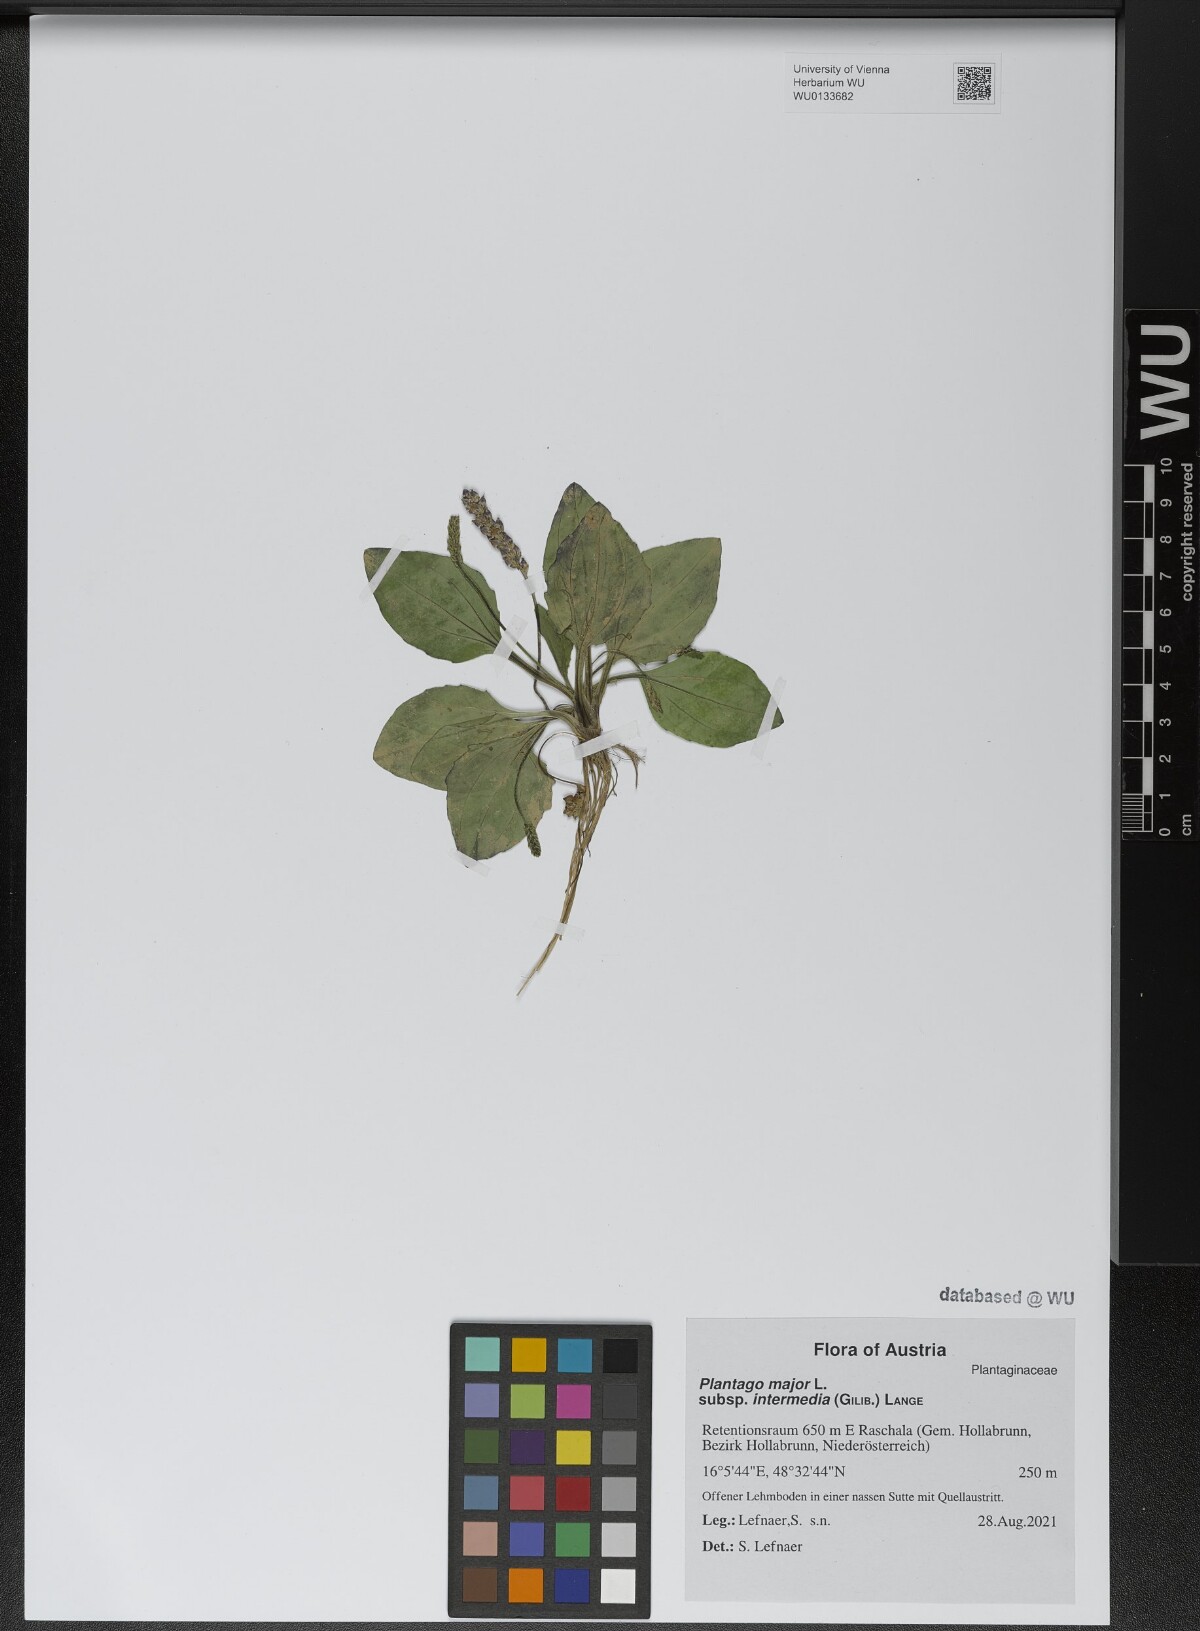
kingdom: Plantae
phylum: Tracheophyta
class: Magnoliopsida
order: Lamiales
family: Plantaginaceae
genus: Plantago
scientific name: Plantago uliginosa
